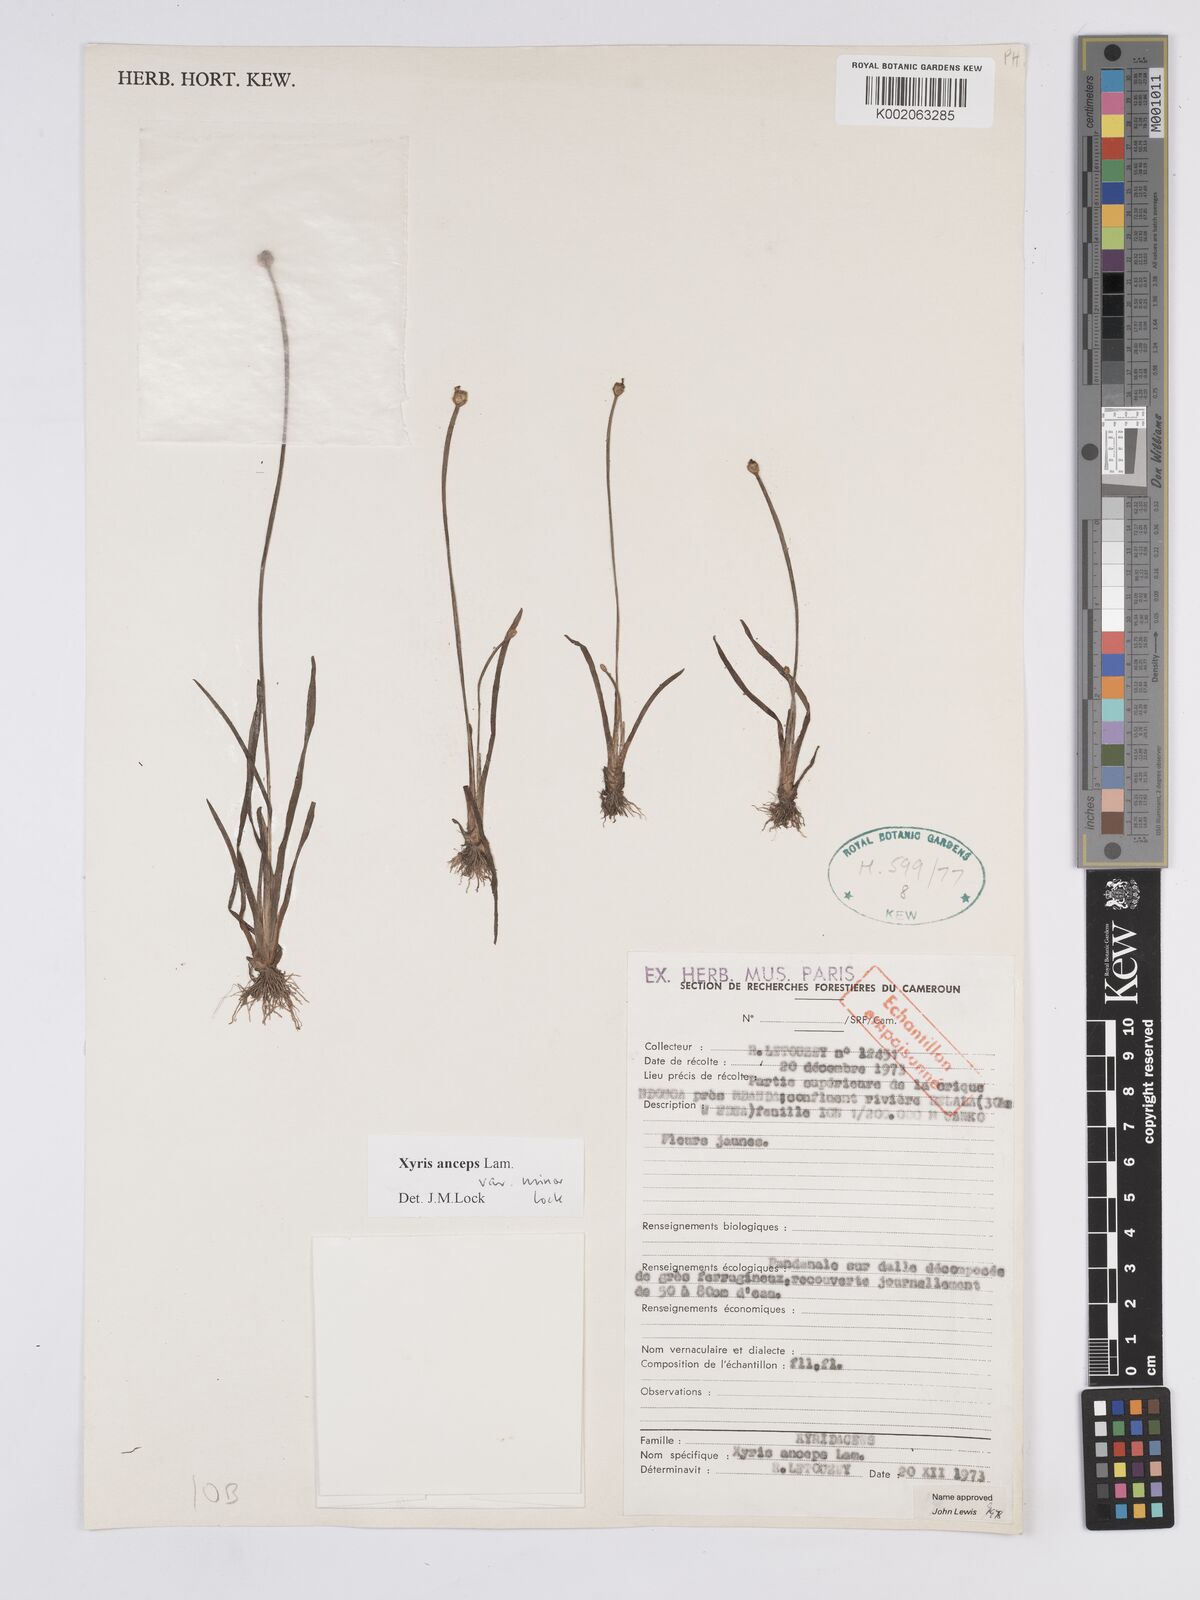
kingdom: Plantae
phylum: Tracheophyta
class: Liliopsida
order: Poales
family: Xyridaceae
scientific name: Xyridaceae
